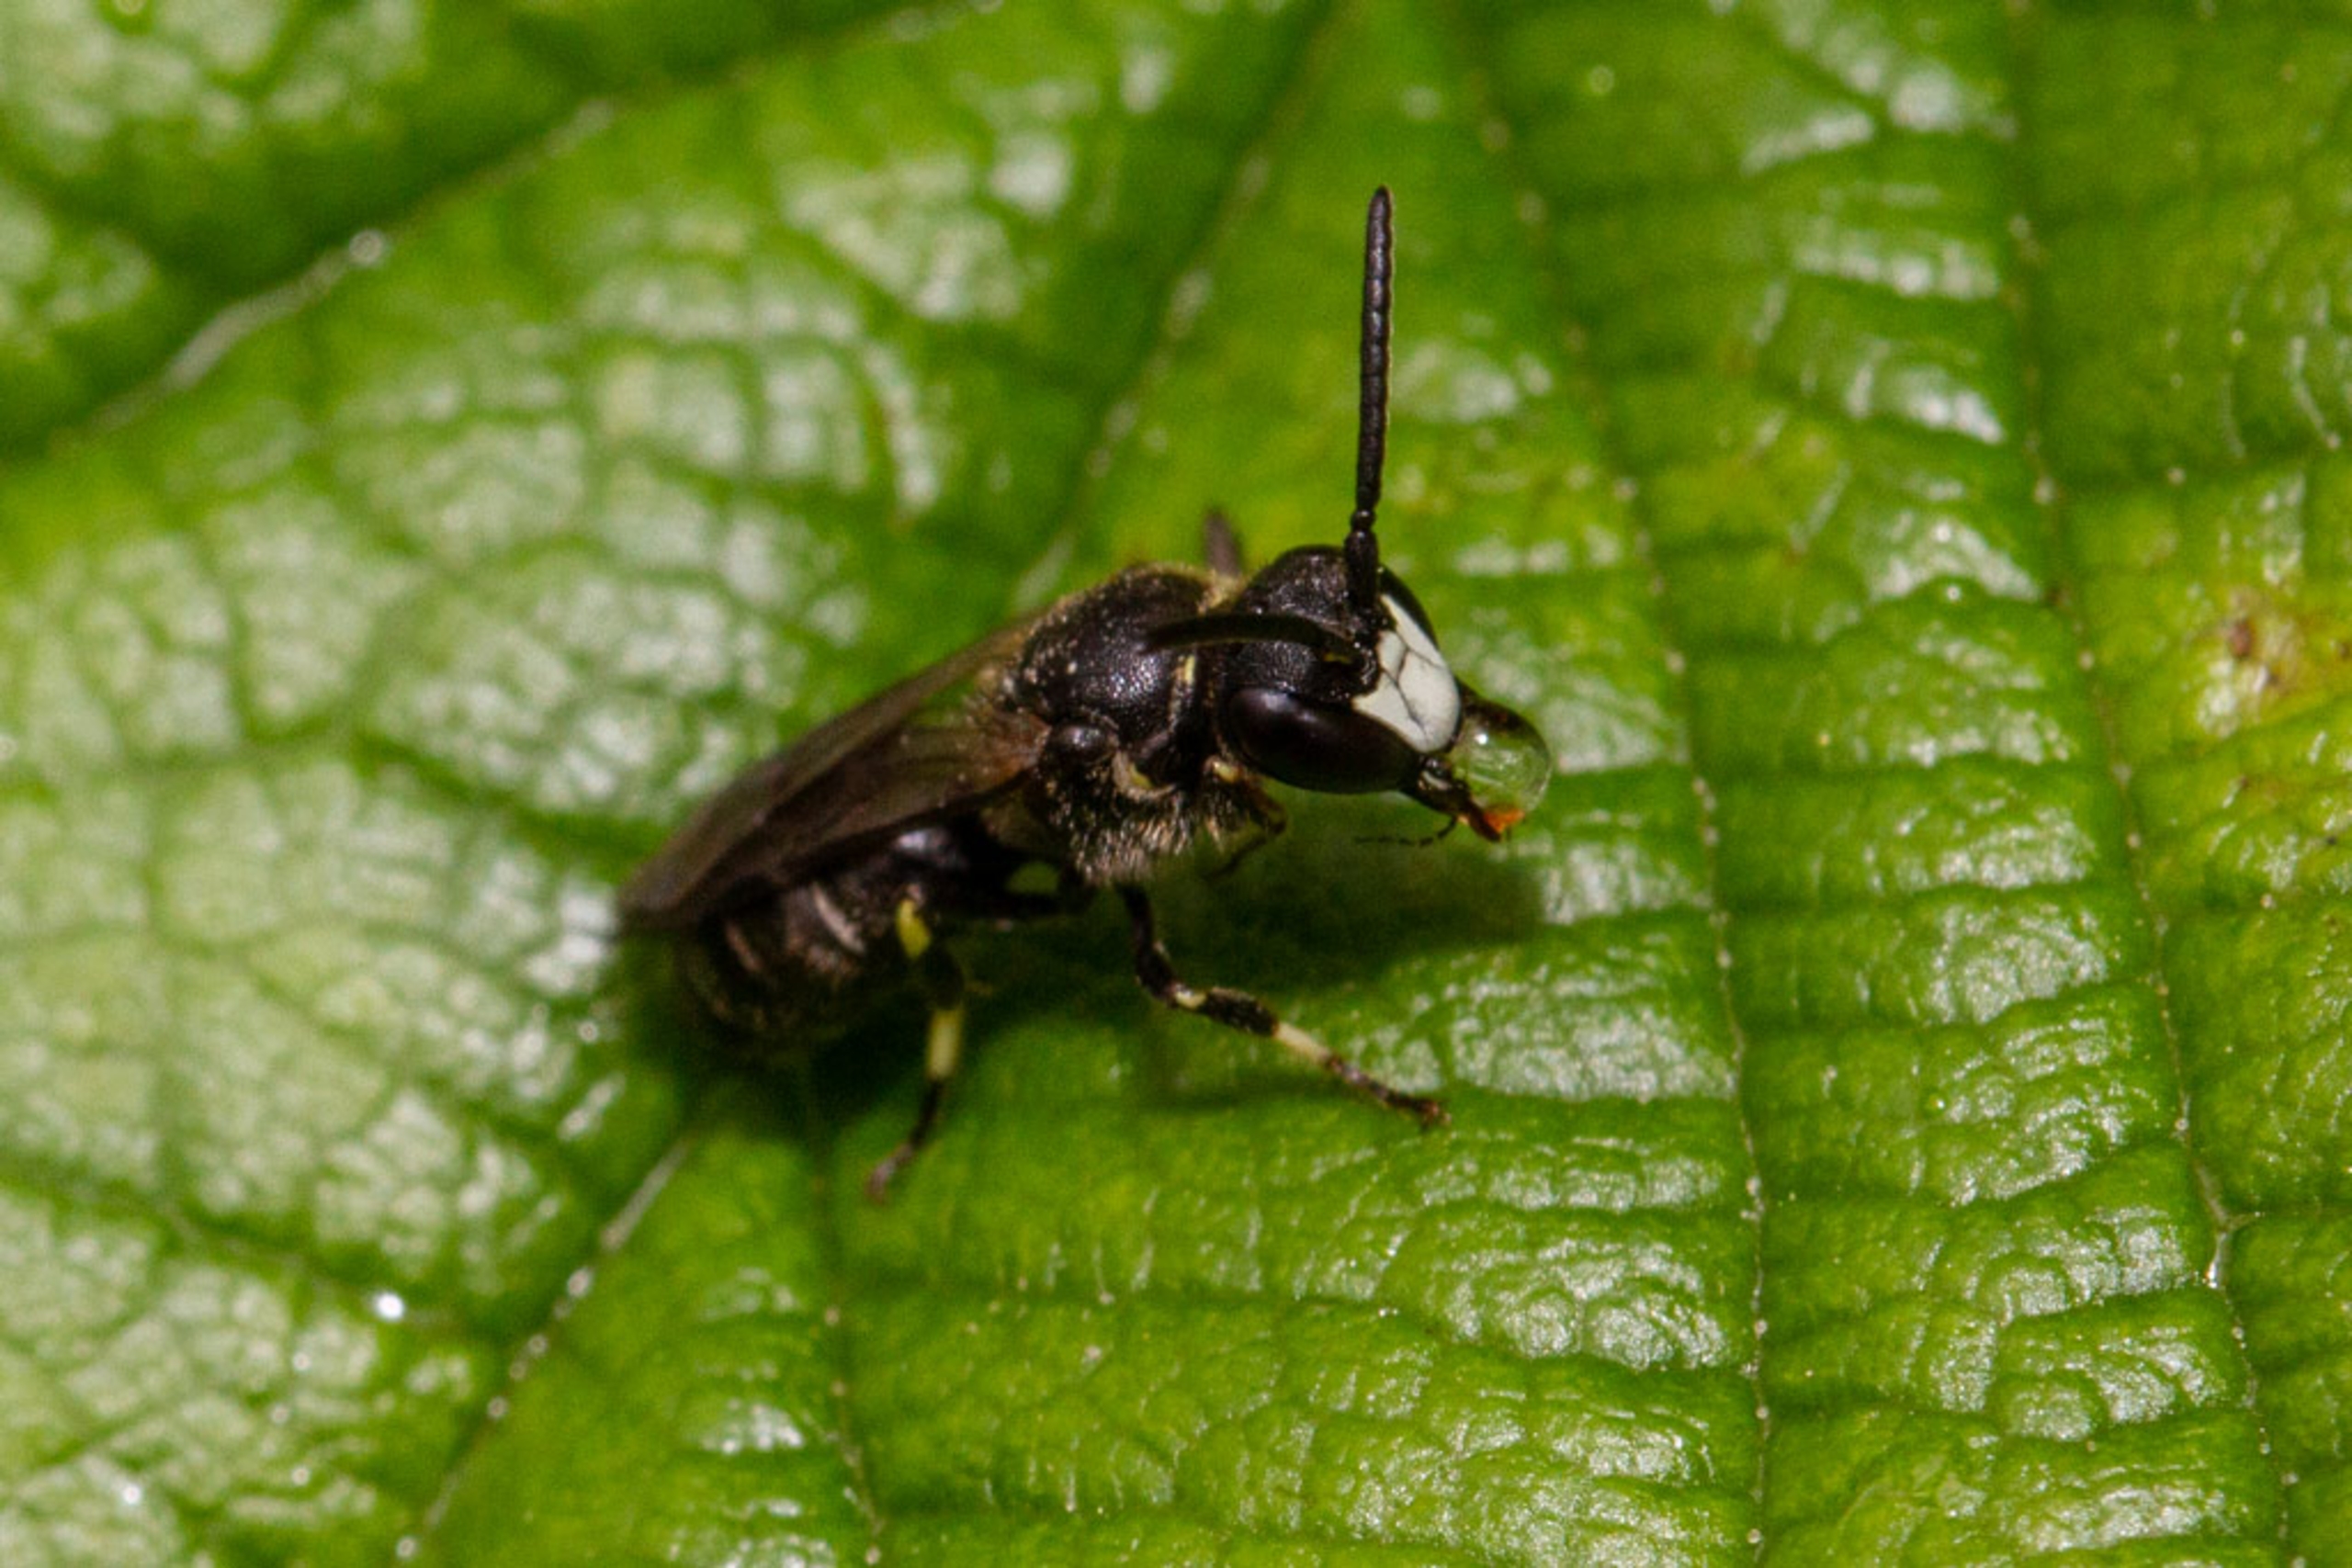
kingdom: Animalia
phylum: Arthropoda
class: Insecta
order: Hymenoptera
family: Colletidae
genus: Hylaeus
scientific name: Hylaeus
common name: Maskebier
